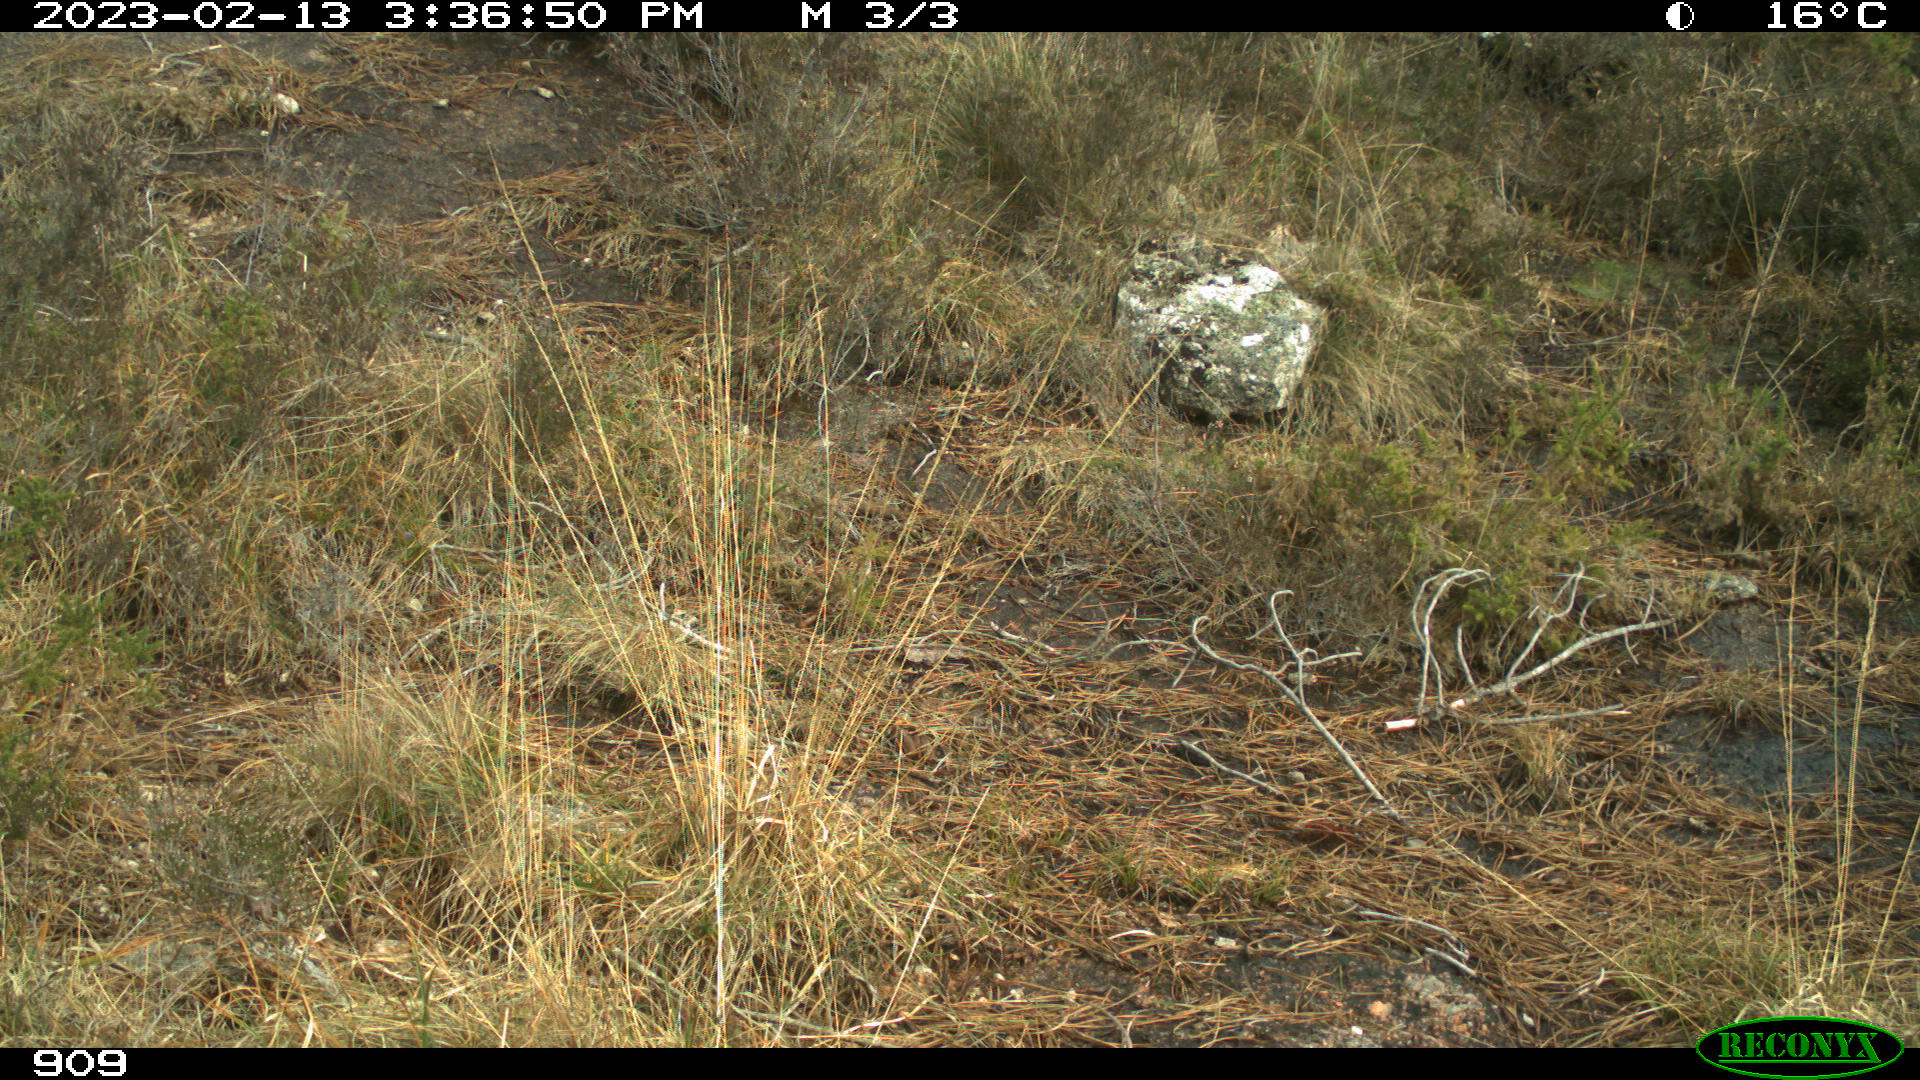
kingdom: Animalia
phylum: Chordata
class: Mammalia
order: Artiodactyla
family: Suidae
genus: Sus
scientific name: Sus scrofa
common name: Wild boar
